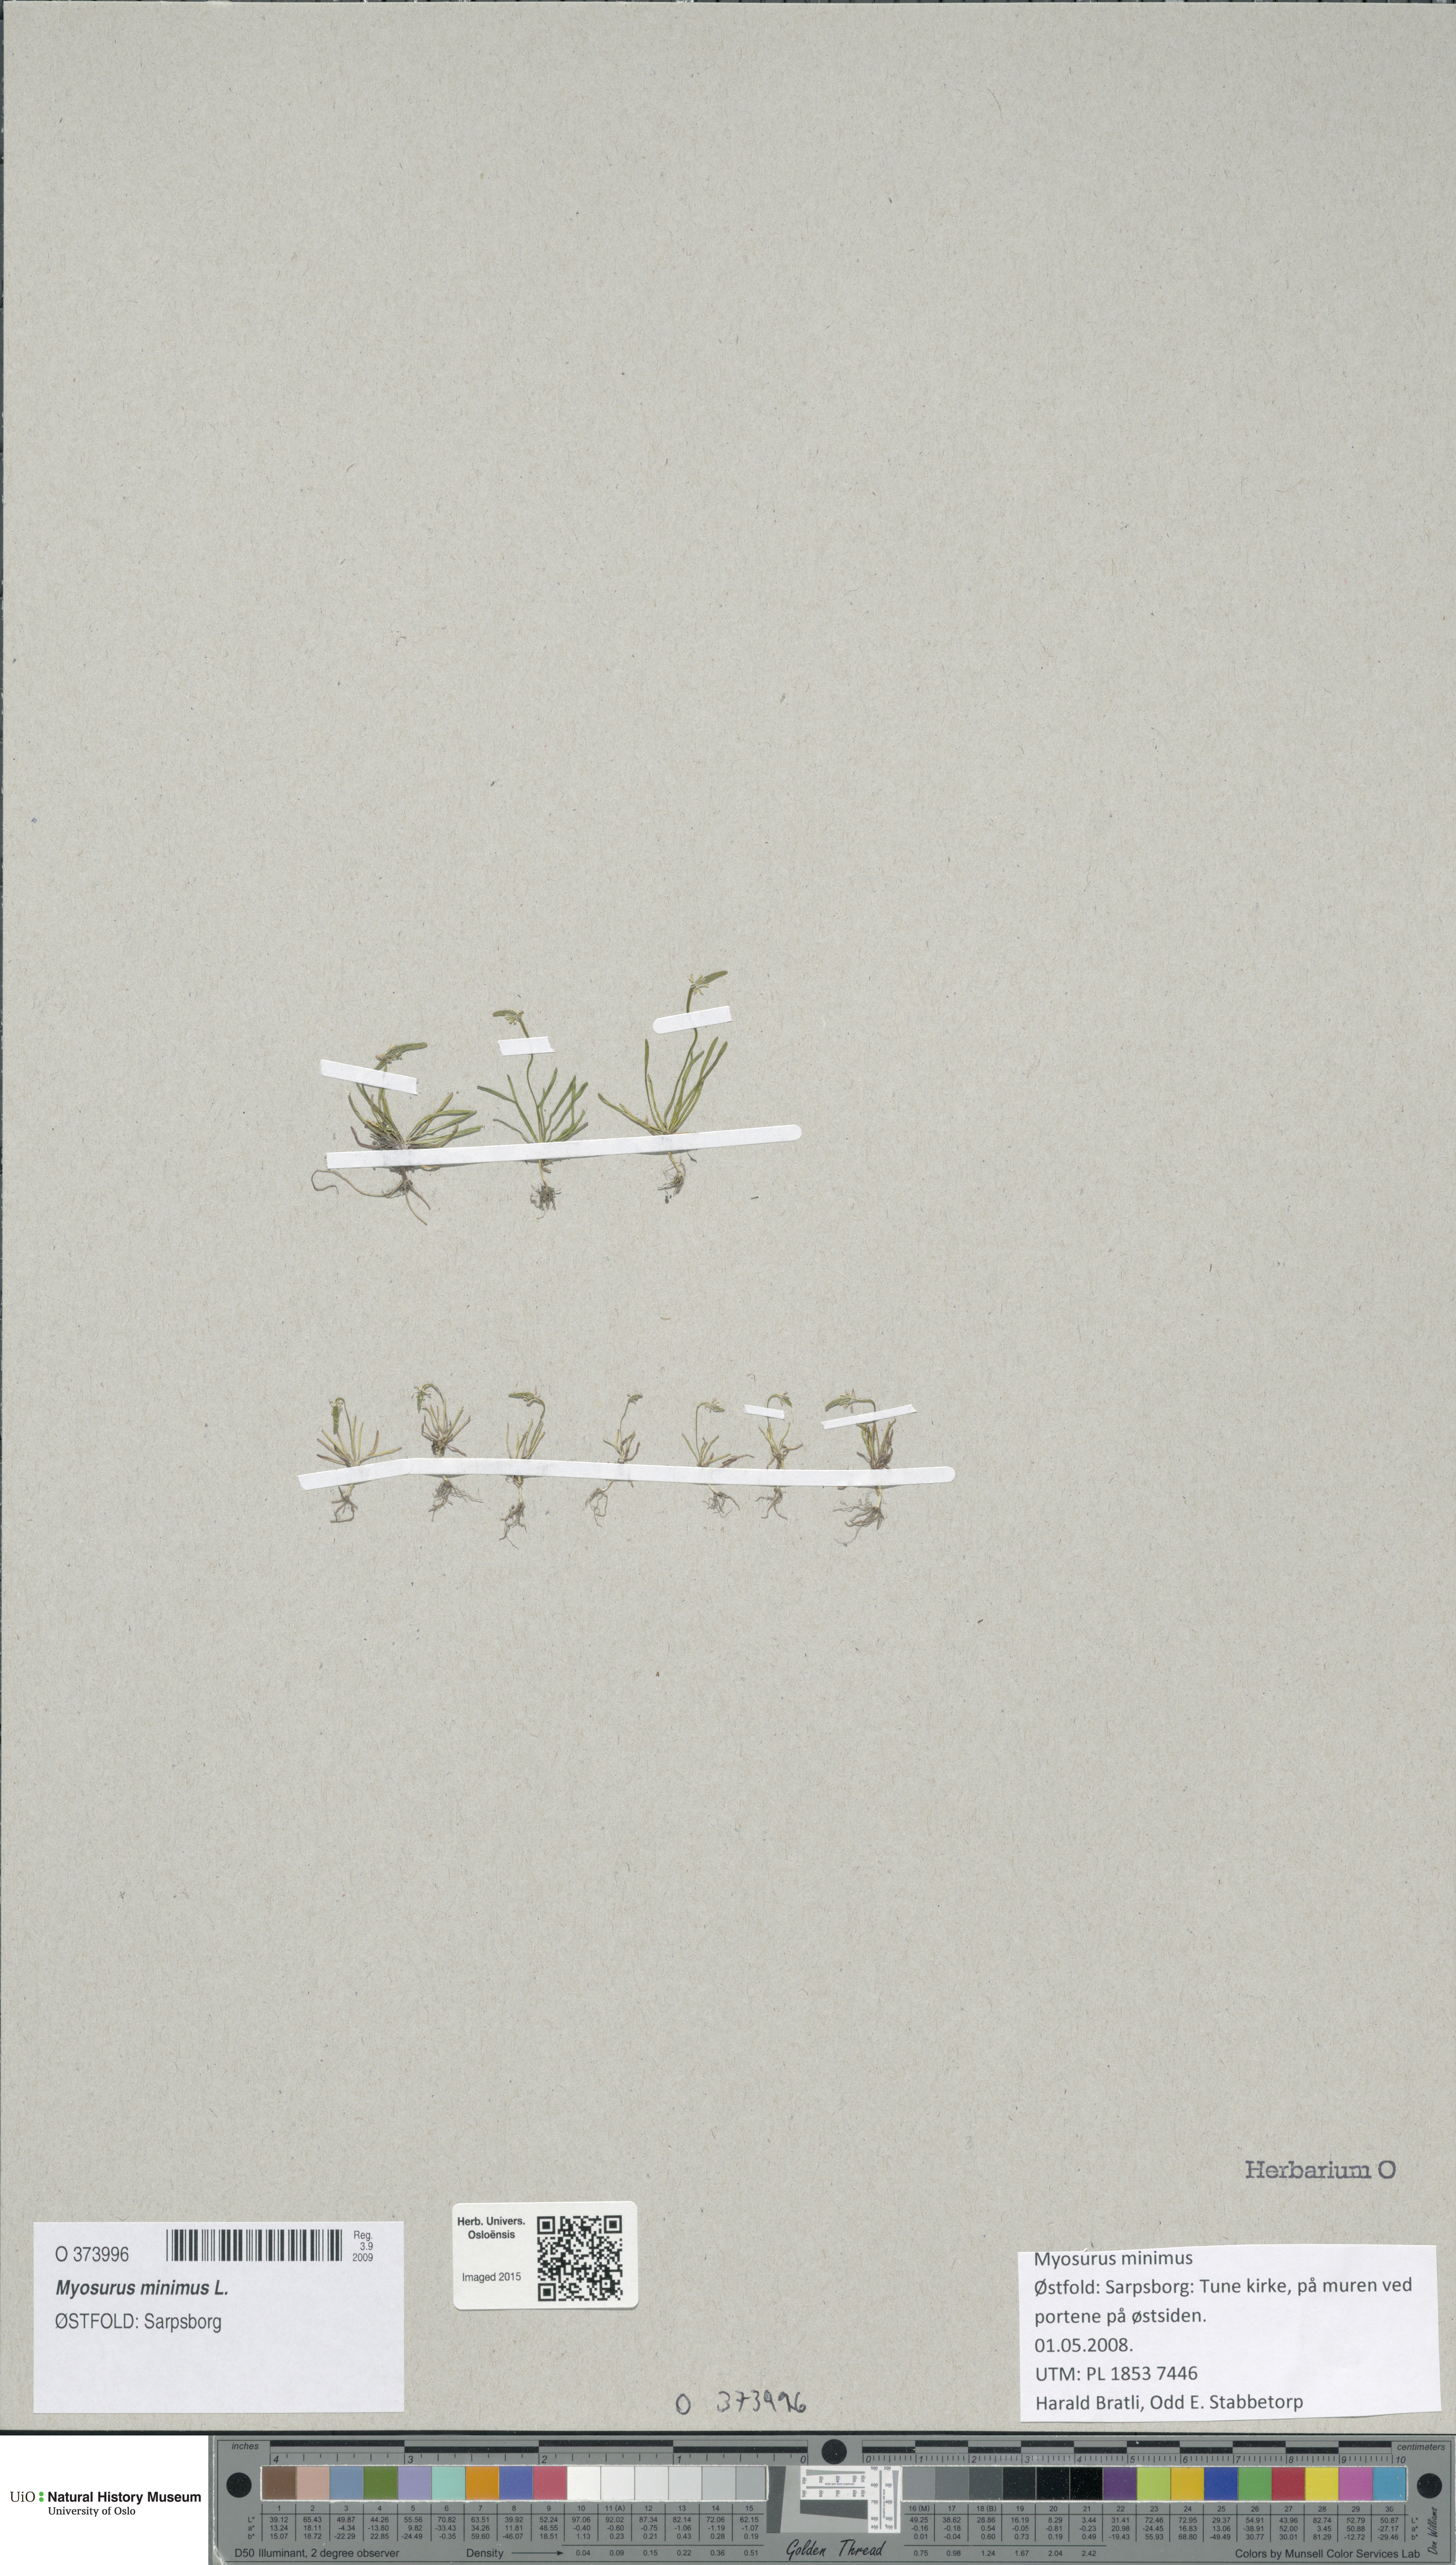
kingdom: Plantae
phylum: Tracheophyta
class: Magnoliopsida
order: Ranunculales
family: Ranunculaceae
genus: Myosurus
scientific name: Myosurus minimus
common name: Mousetail
